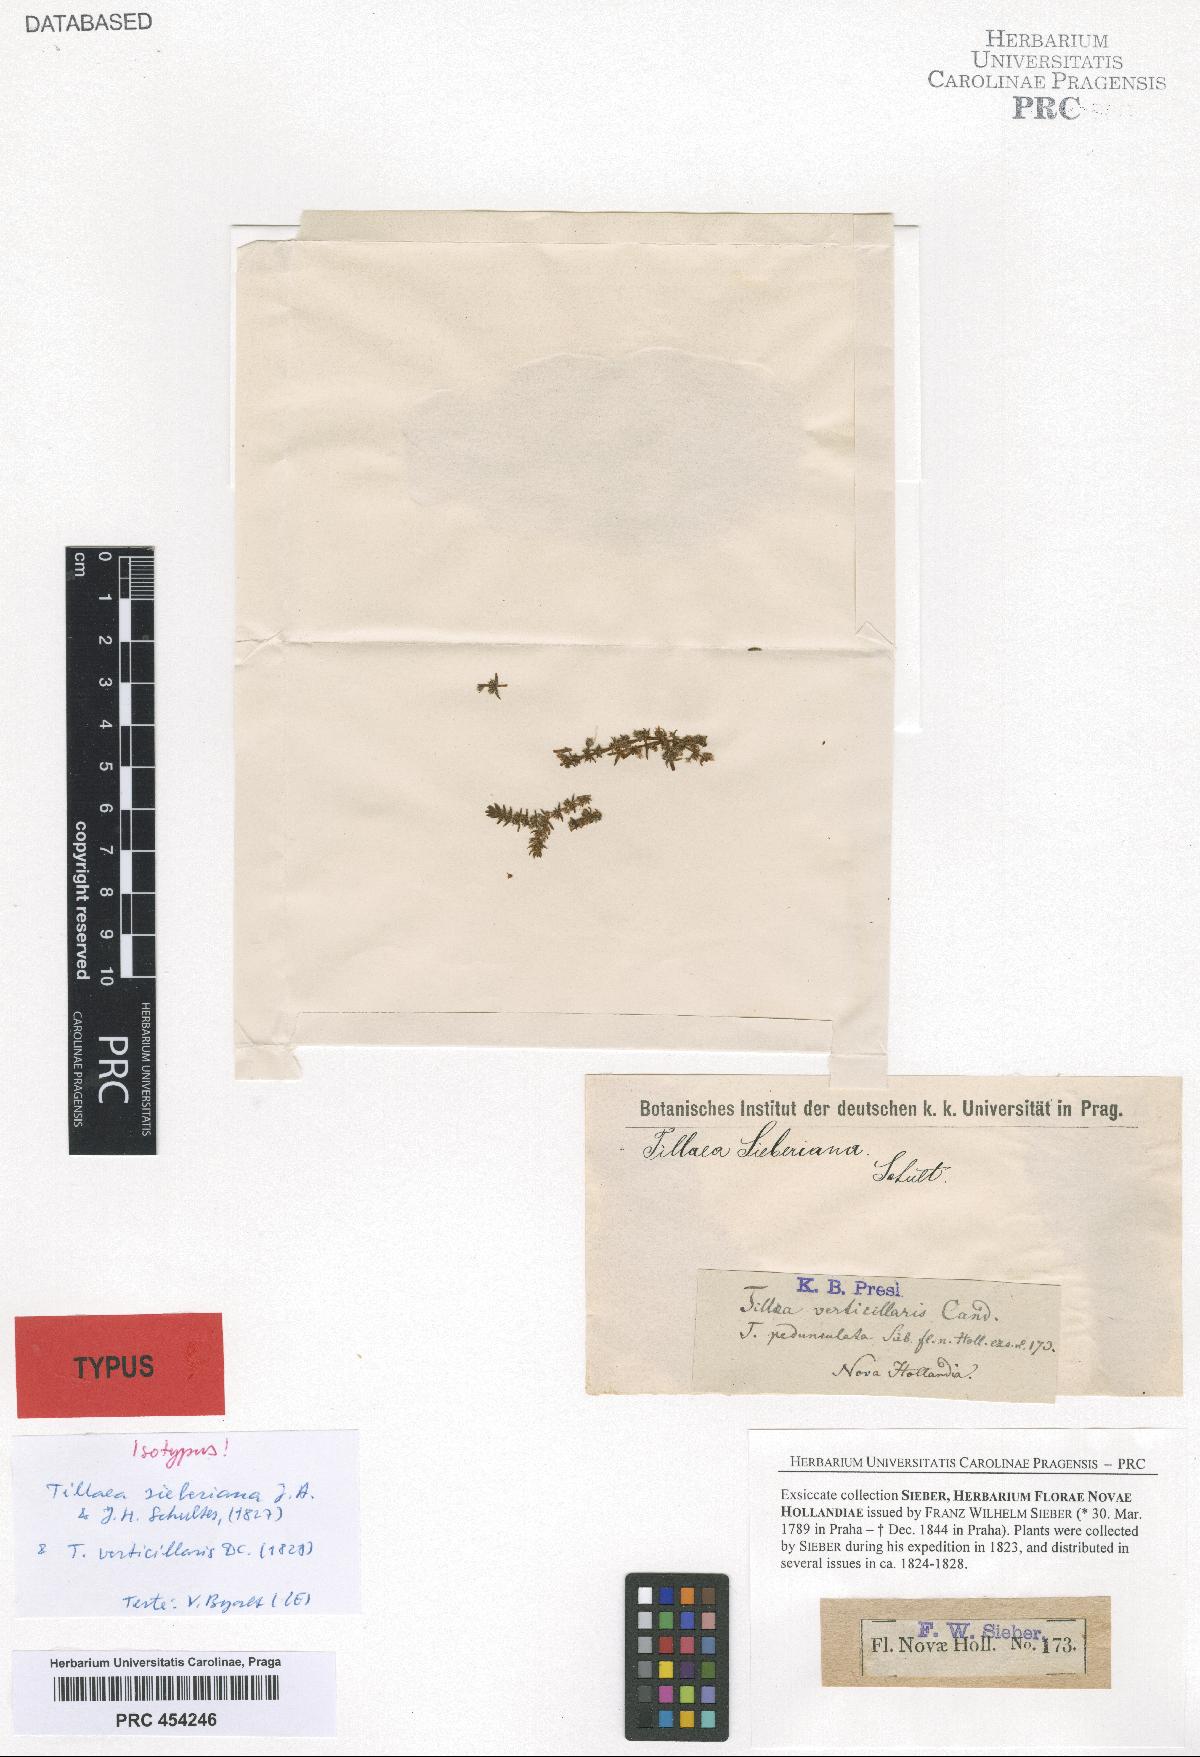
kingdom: Plantae
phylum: Tracheophyta
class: Magnoliopsida
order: Saxifragales
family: Crassulaceae
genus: Crassula
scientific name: Crassula sieberiana
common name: Siberian pygmyweed
